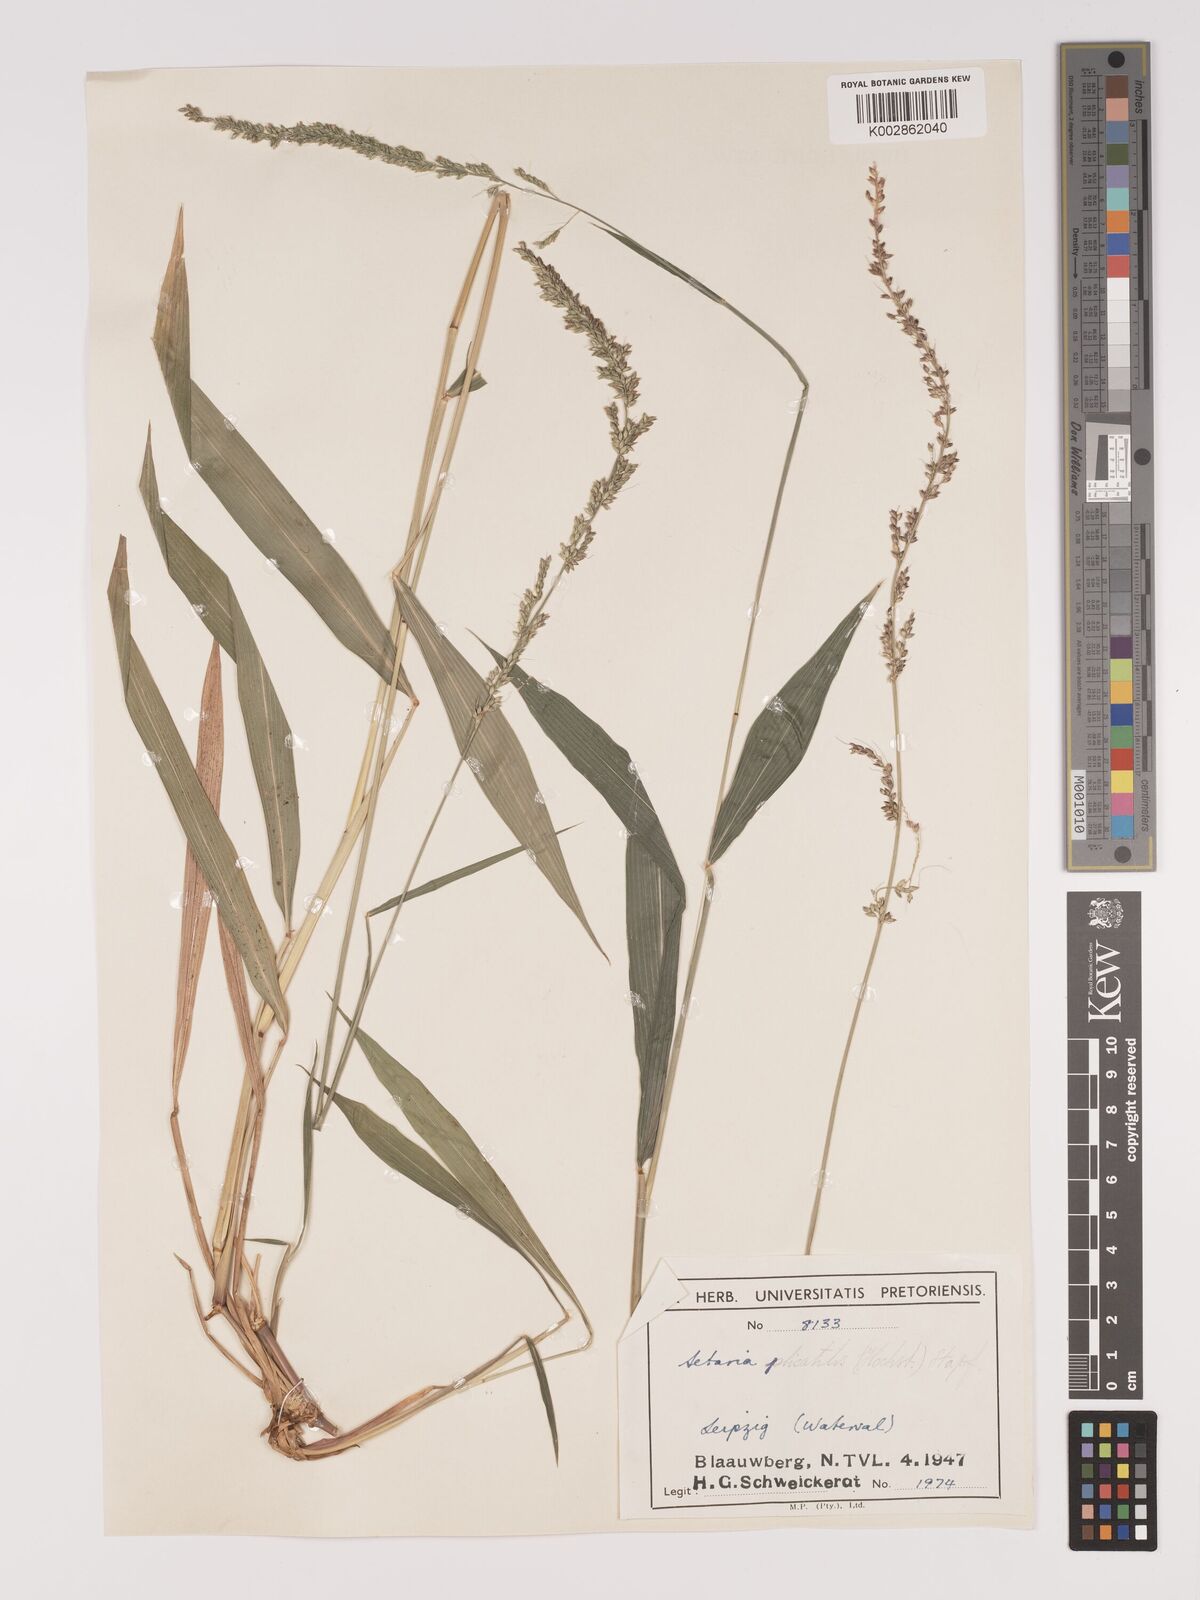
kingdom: Plantae
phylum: Tracheophyta
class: Liliopsida
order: Poales
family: Poaceae
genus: Setaria
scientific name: Setaria megaphylla
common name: Bigleaf bristlegrass
